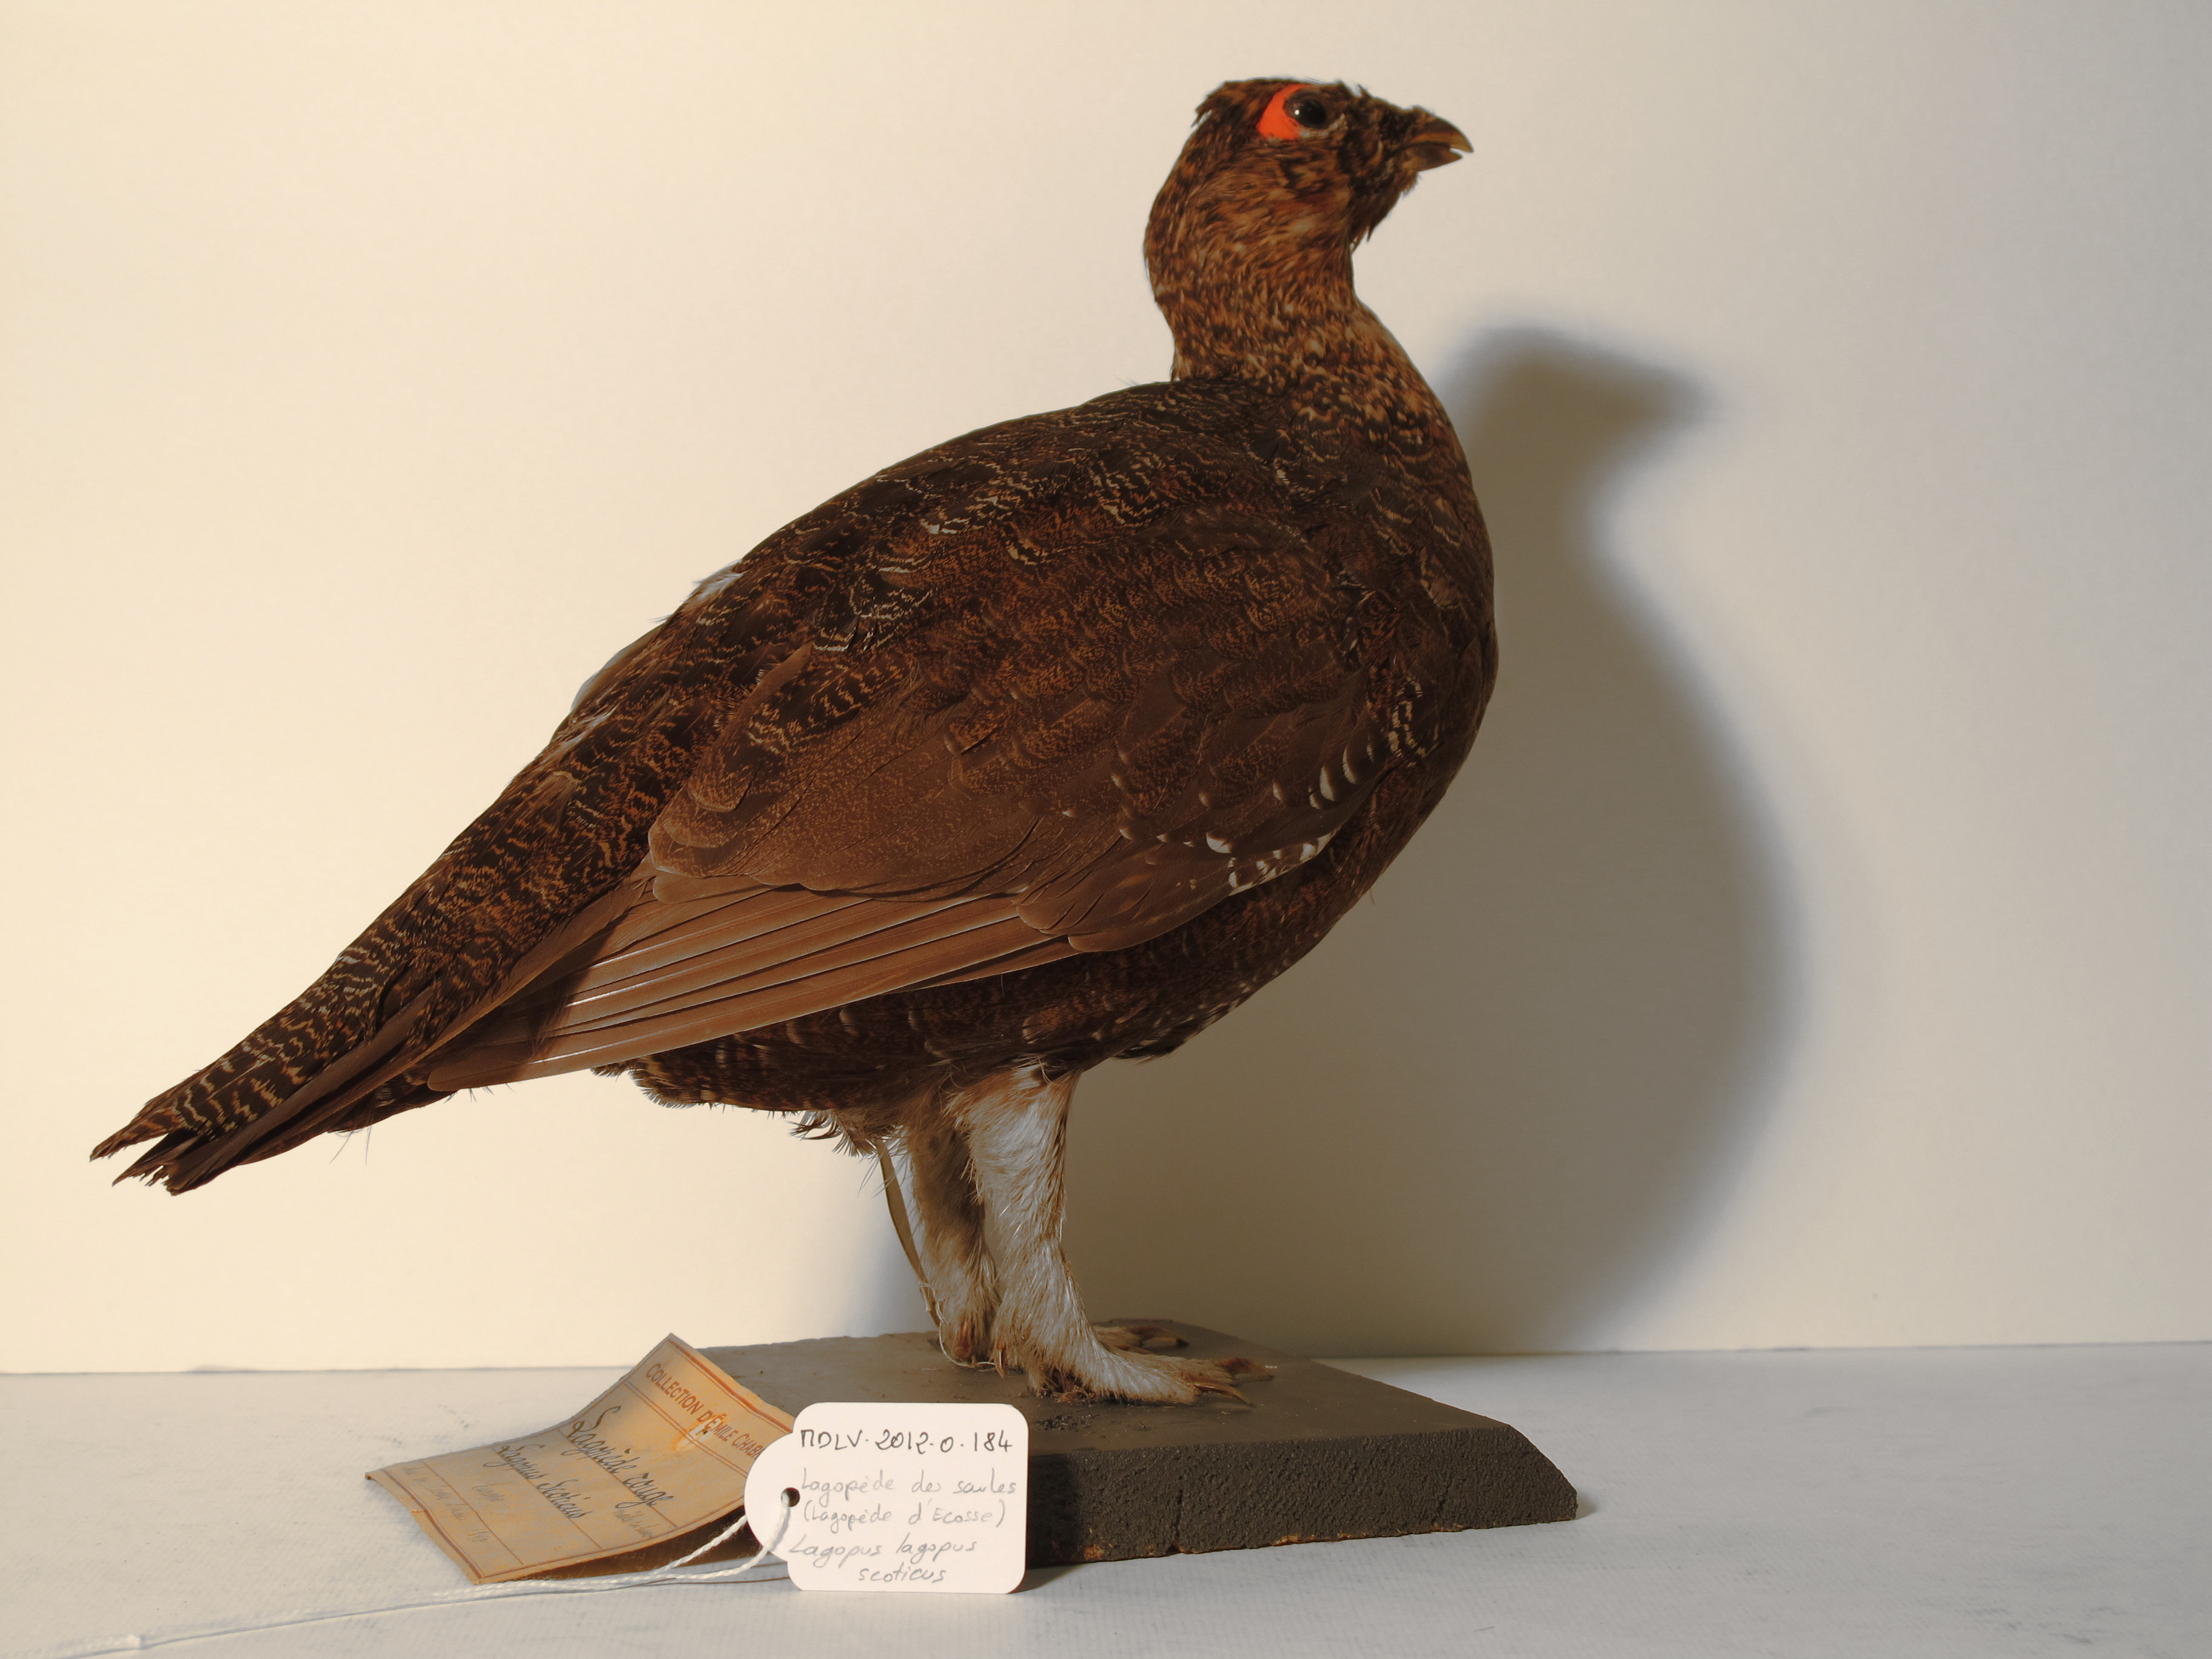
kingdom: Animalia
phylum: Chordata
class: Aves
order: Galliformes
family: Phasianidae
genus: Lagopus
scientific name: Lagopus lagopus
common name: Willow Grouse
